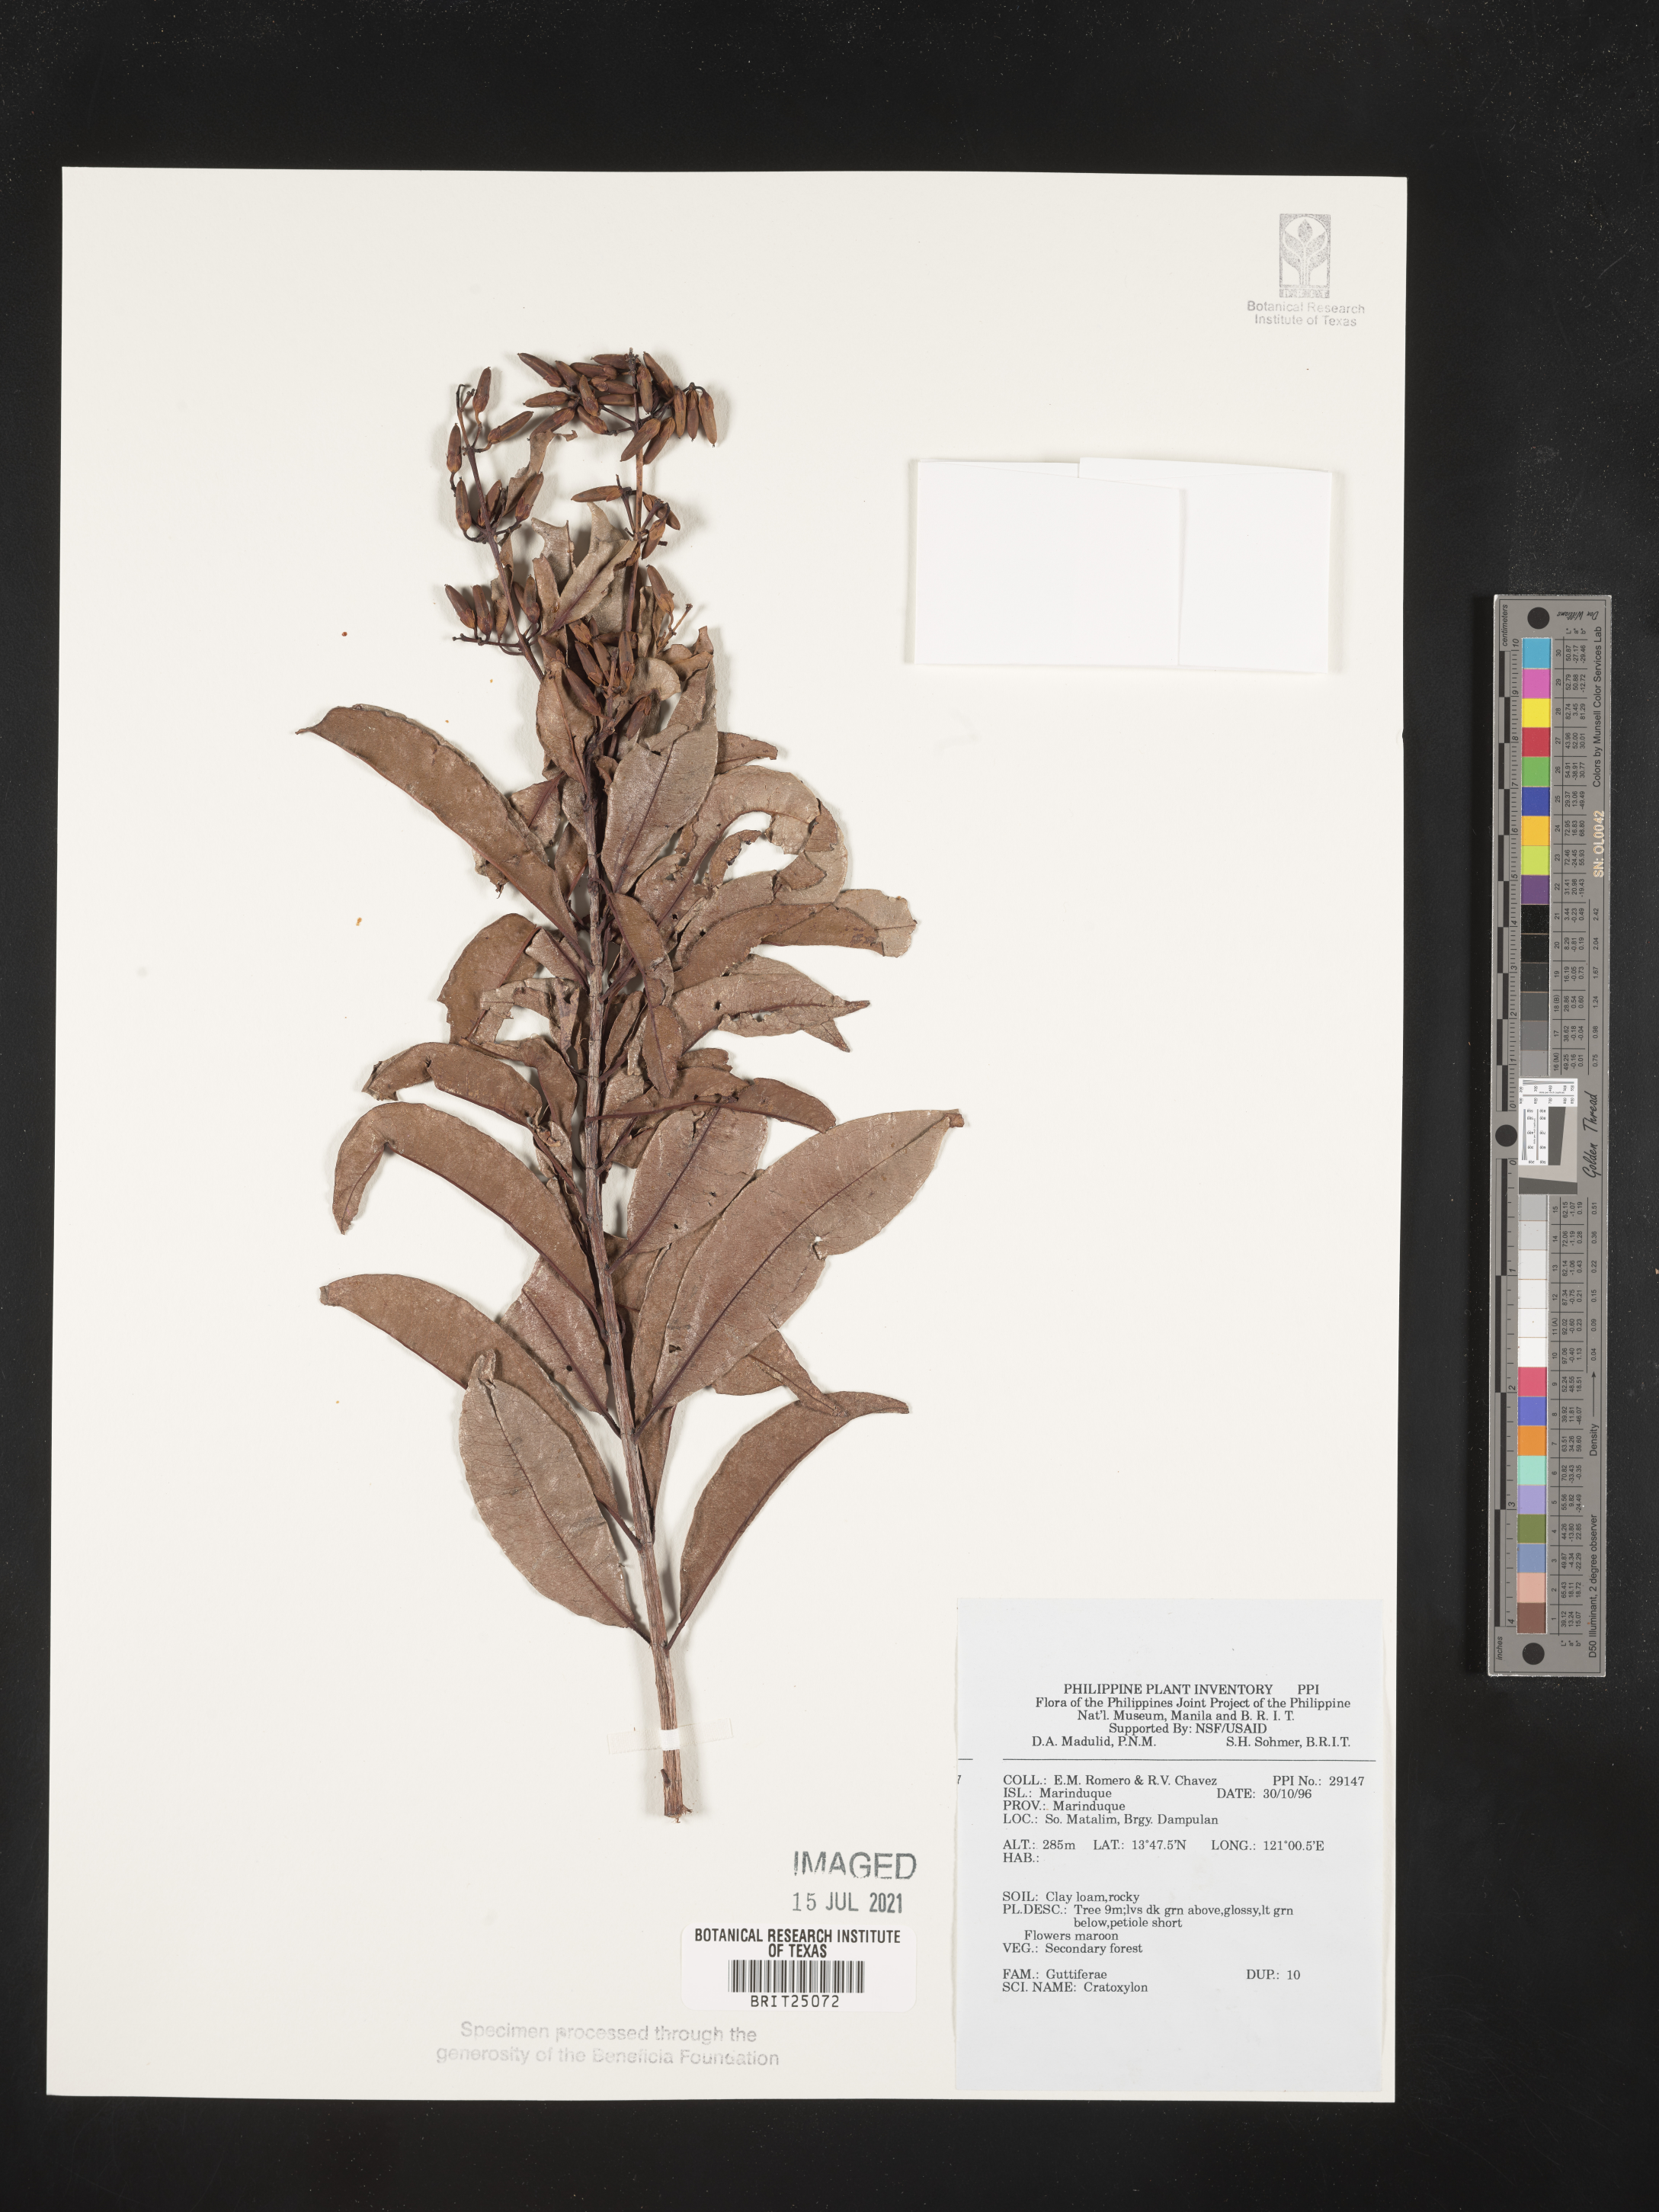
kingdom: Plantae
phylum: Tracheophyta
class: Magnoliopsida
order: Malpighiales
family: Hypericaceae
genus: Cratoxylum
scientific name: Cratoxylum
